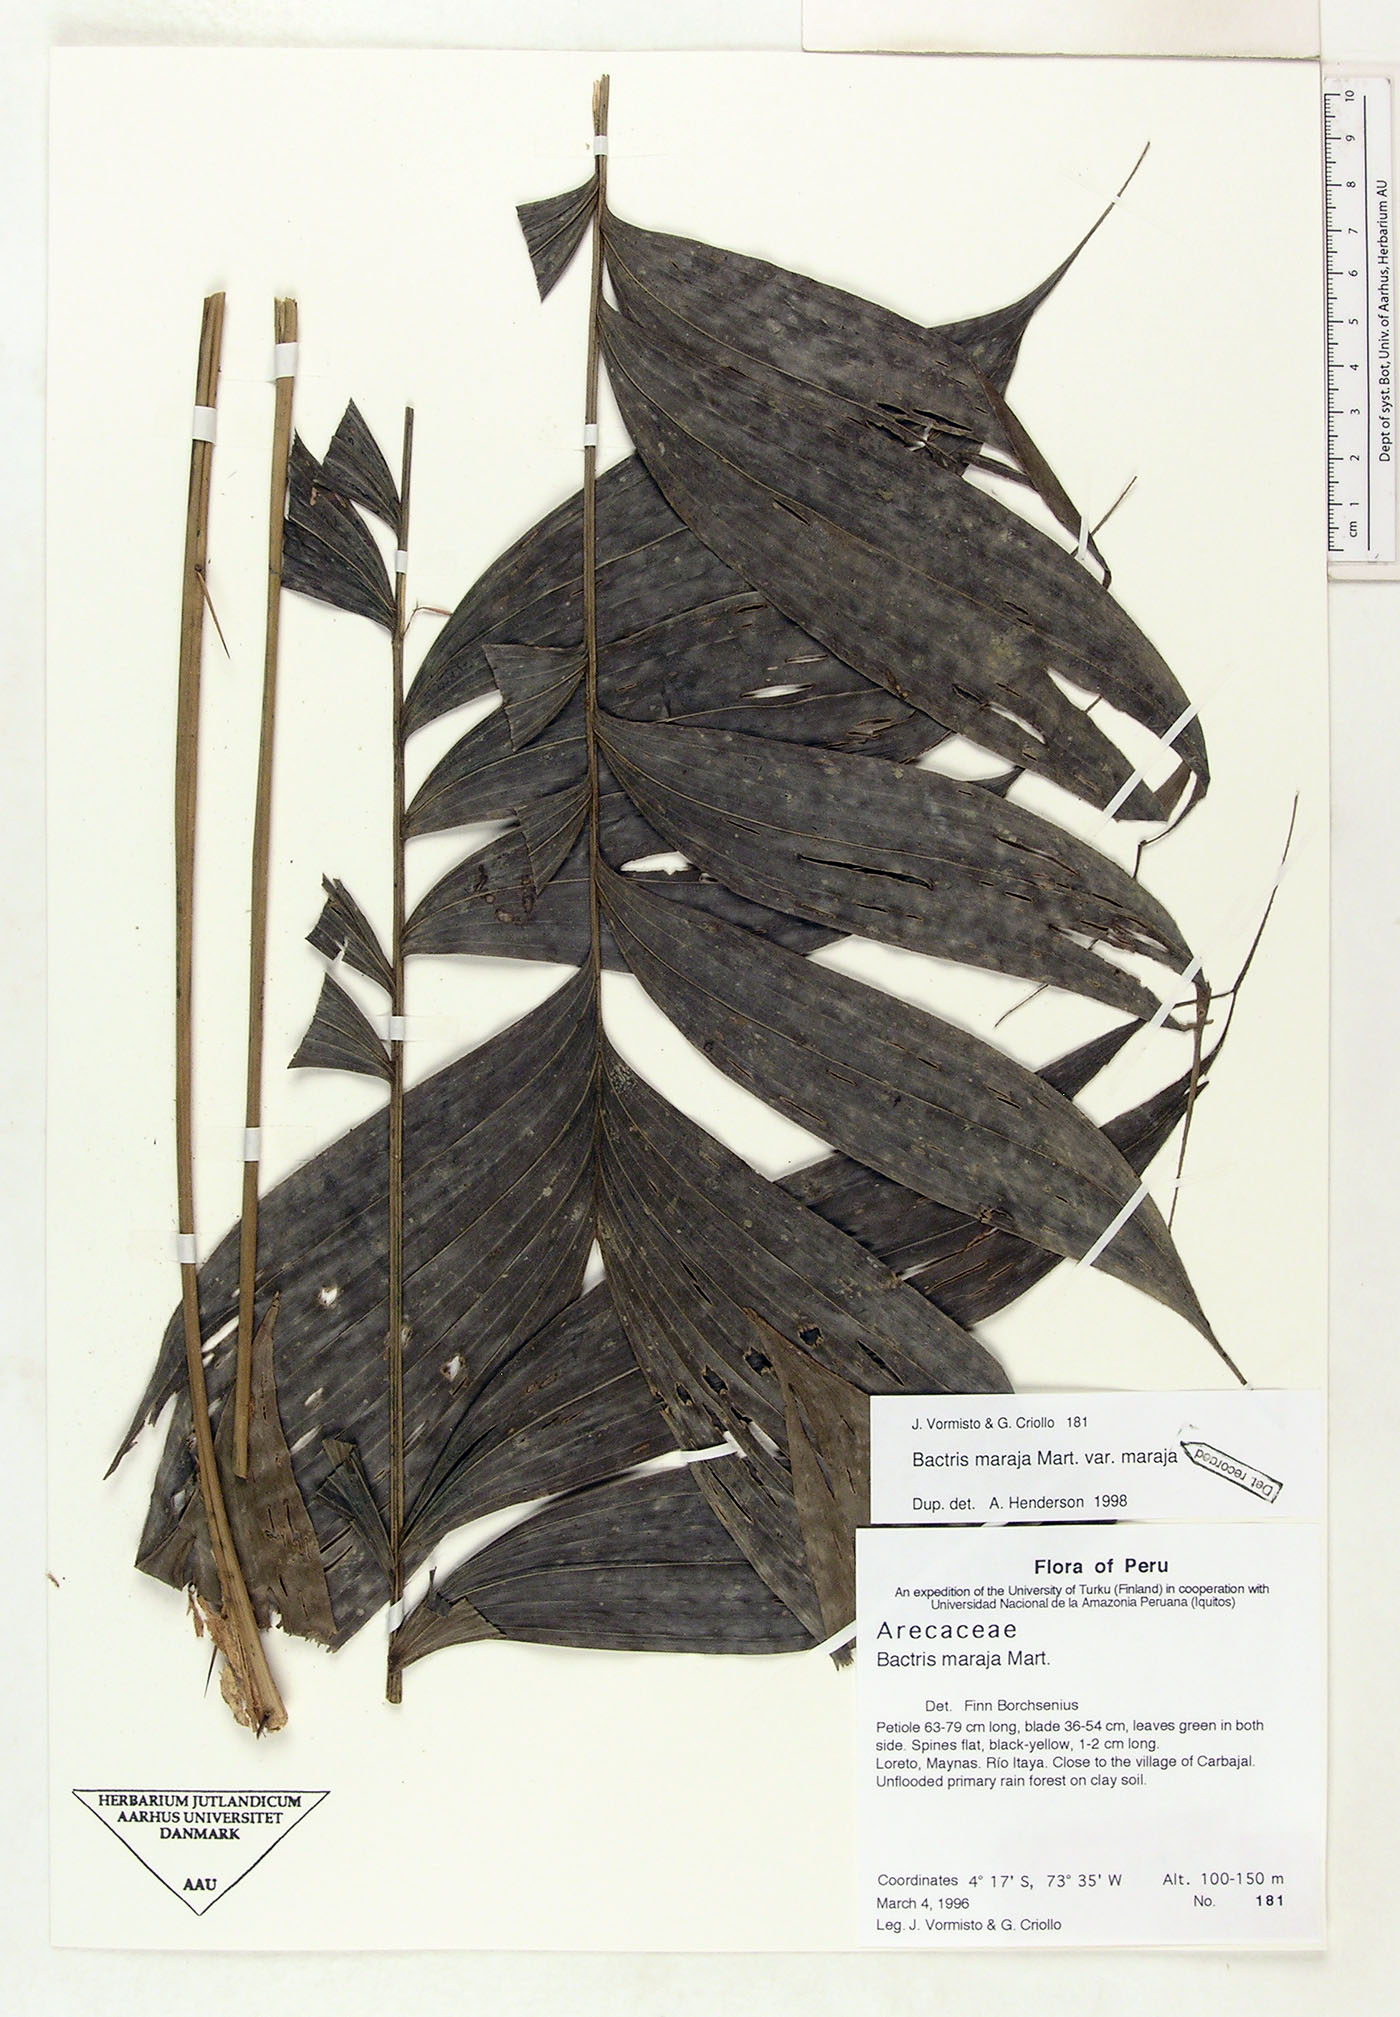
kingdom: Plantae
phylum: Tracheophyta
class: Liliopsida
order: Arecales
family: Arecaceae
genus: Bactris
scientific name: Bactris maraja
